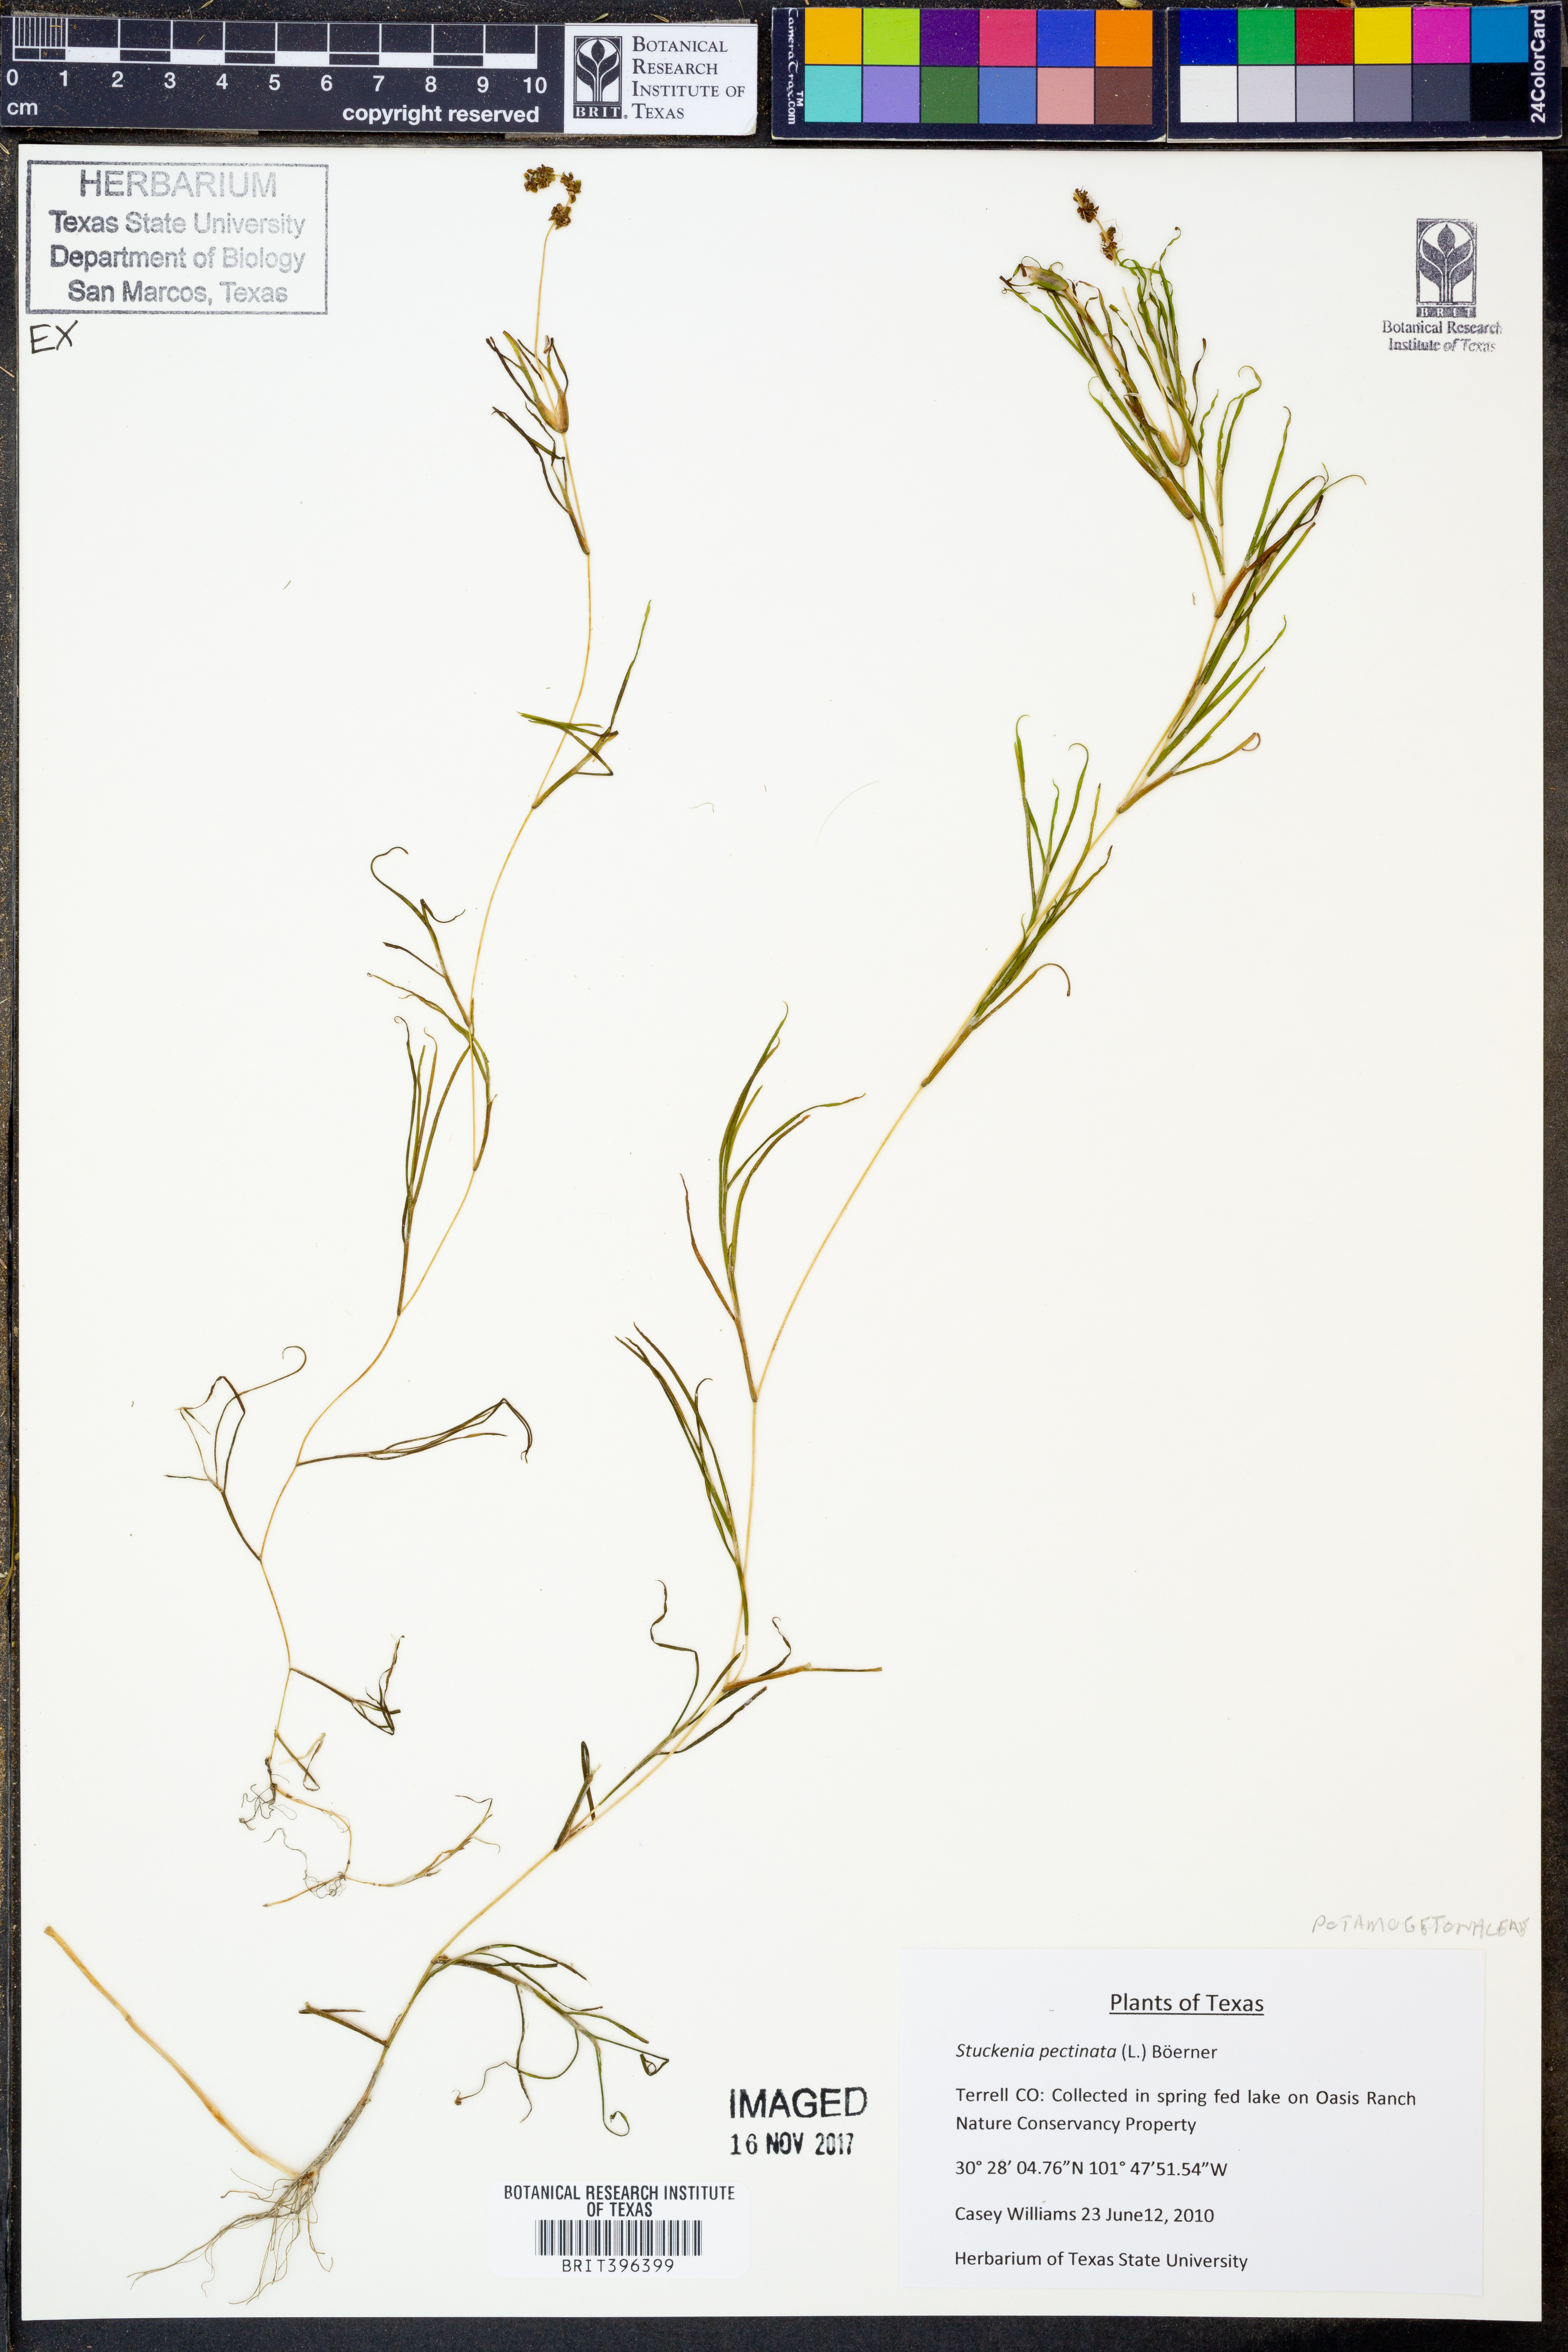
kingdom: Plantae
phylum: Tracheophyta
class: Liliopsida
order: Alismatales
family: Potamogetonaceae
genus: Stuckenia
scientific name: Stuckenia pectinata
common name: Sago pondweed
